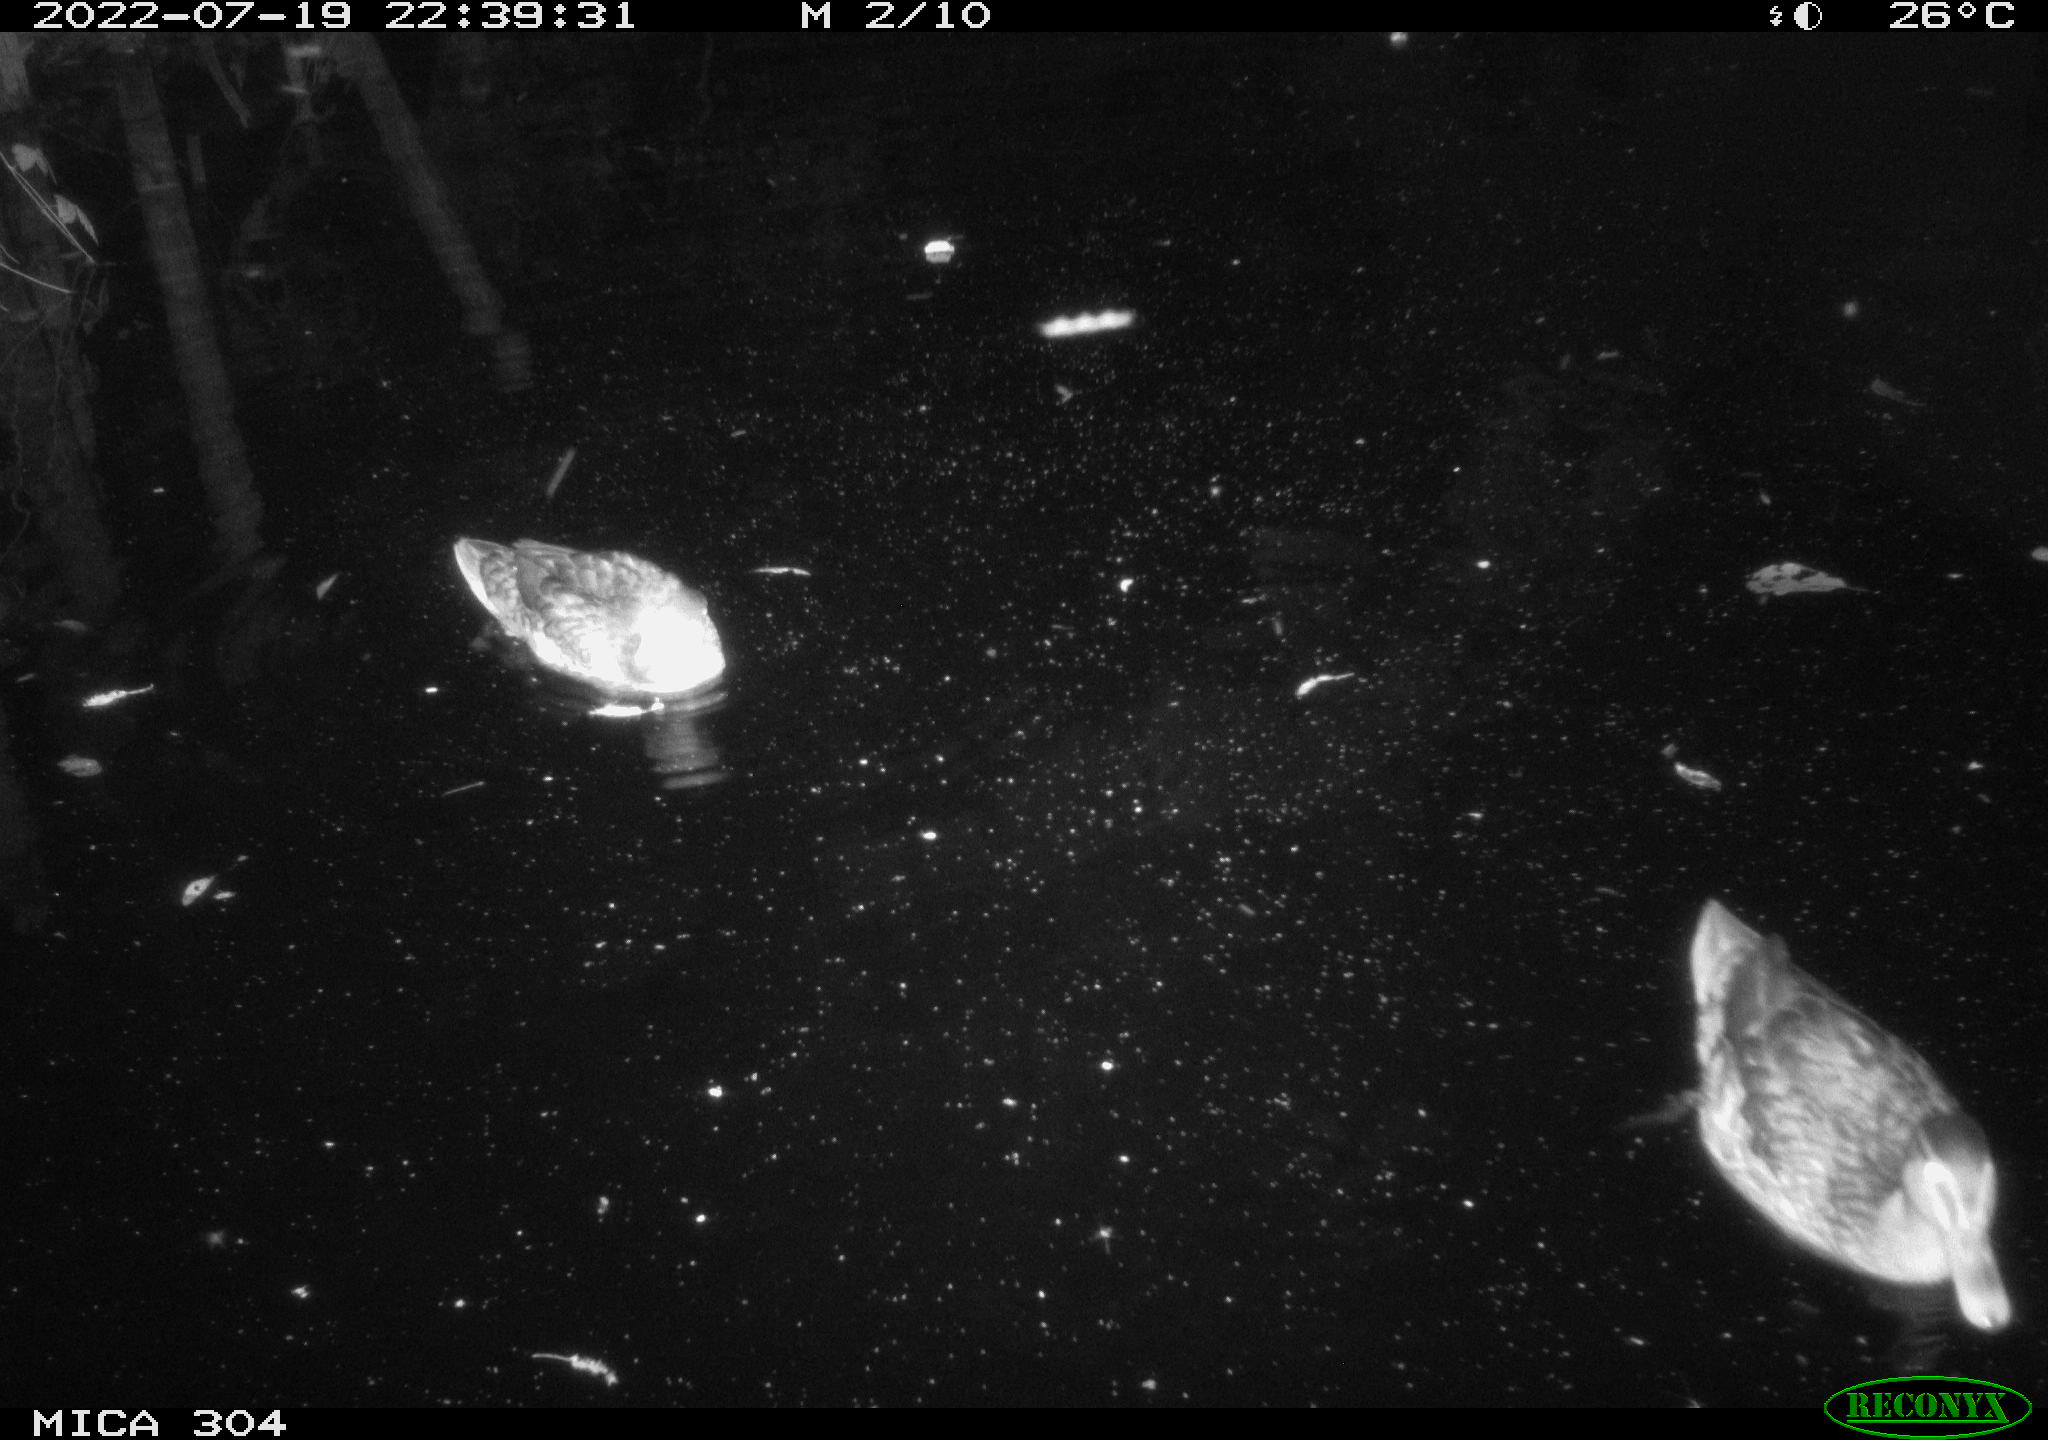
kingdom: Animalia
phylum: Chordata
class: Aves
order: Gruiformes
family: Rallidae
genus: Gallinula
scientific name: Gallinula chloropus
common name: Common moorhen
